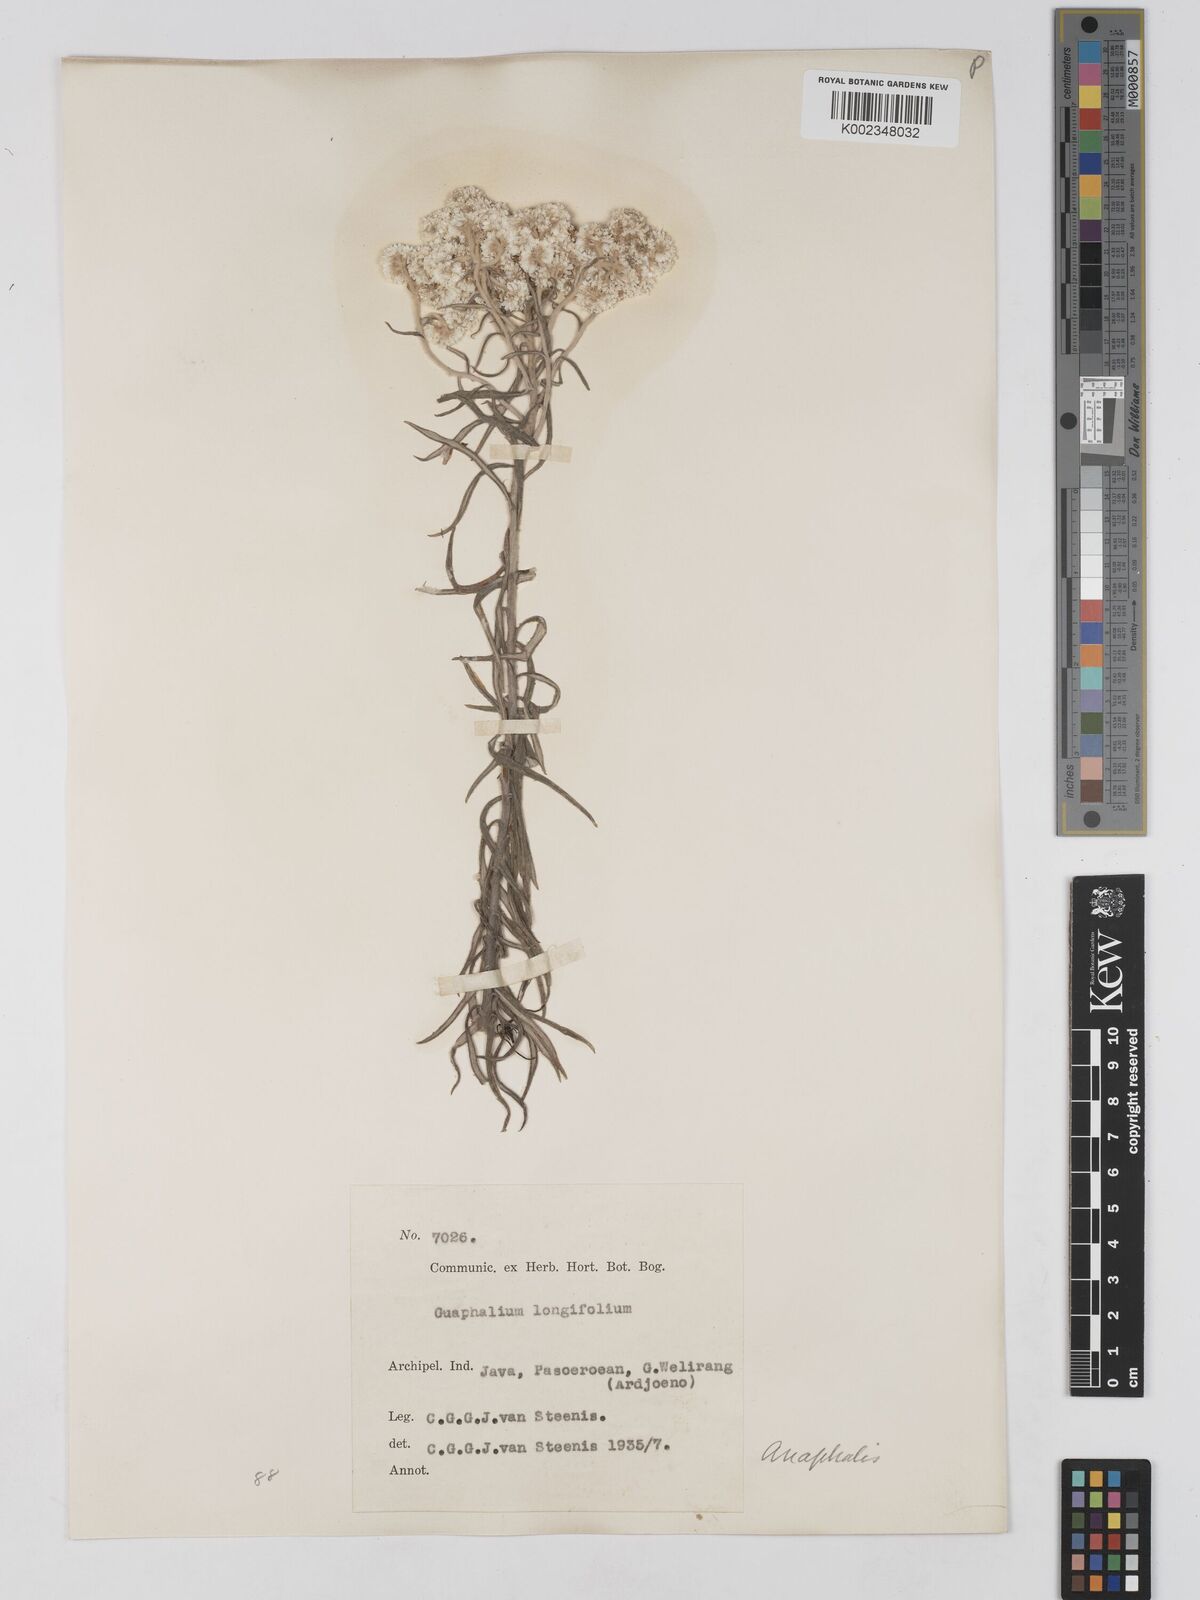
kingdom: Plantae
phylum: Tracheophyta
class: Magnoliopsida
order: Asterales
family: Asteraceae
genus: Anaphalis
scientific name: Anaphalis longifolia
